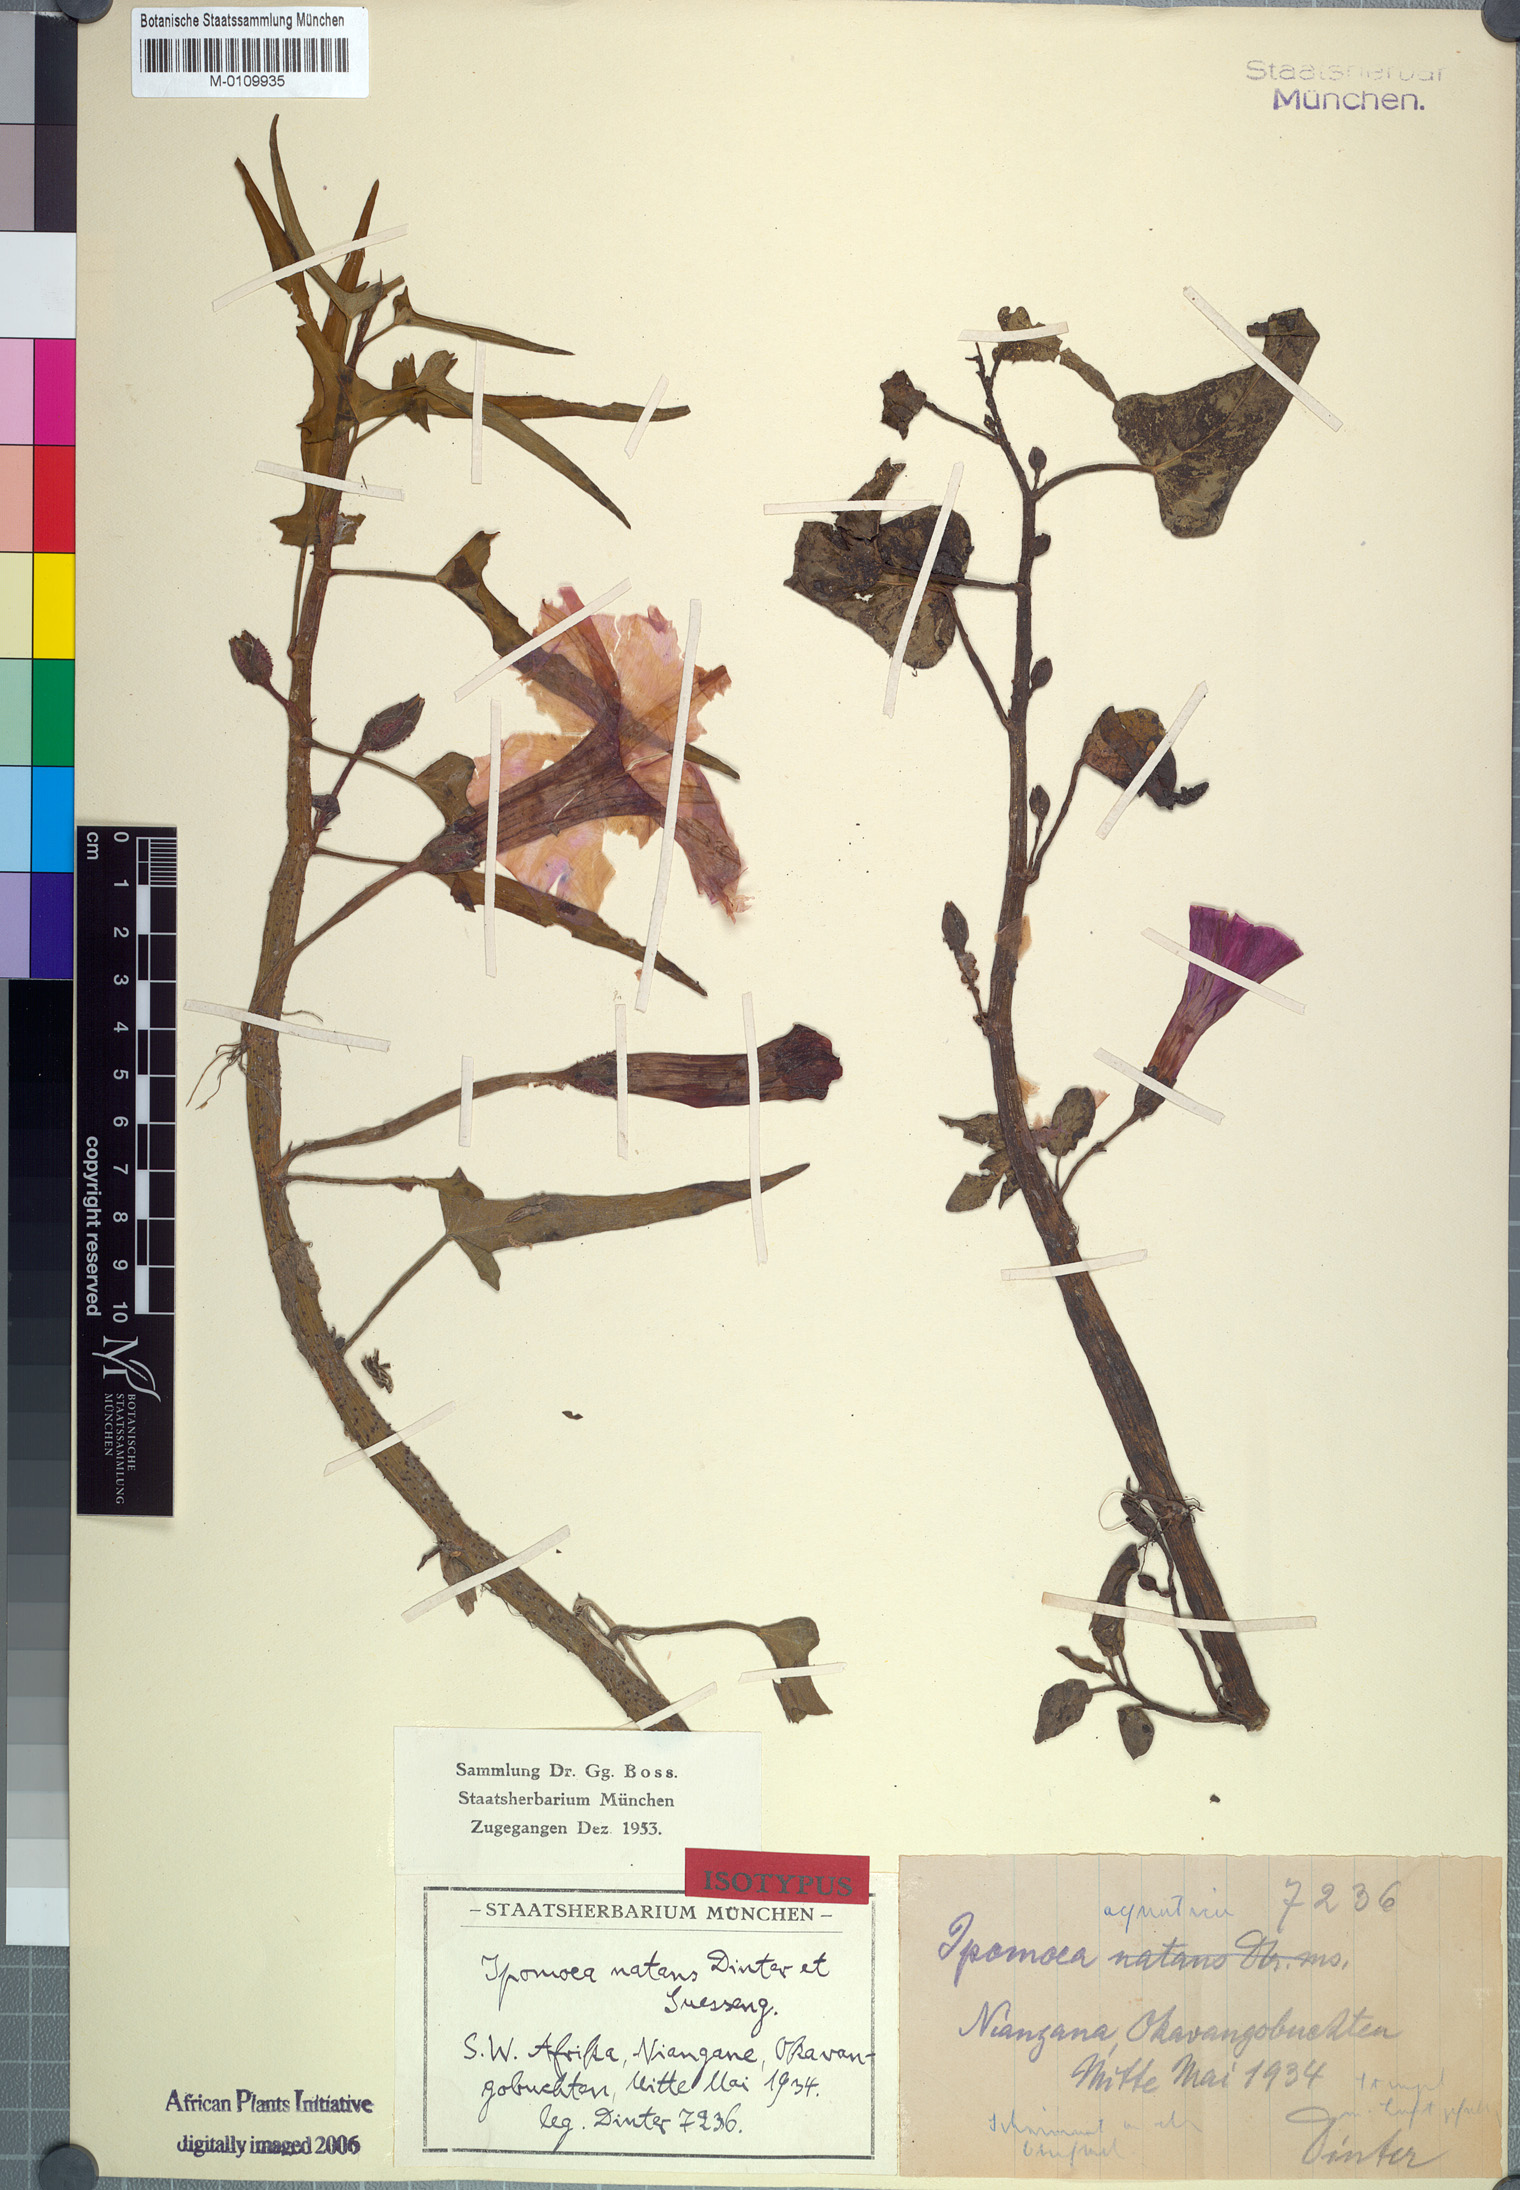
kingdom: Plantae
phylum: Tracheophyta
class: Magnoliopsida
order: Solanales
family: Convolvulaceae
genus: Ipomoea
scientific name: Ipomoea aquatica
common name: Swamp morning-glory
